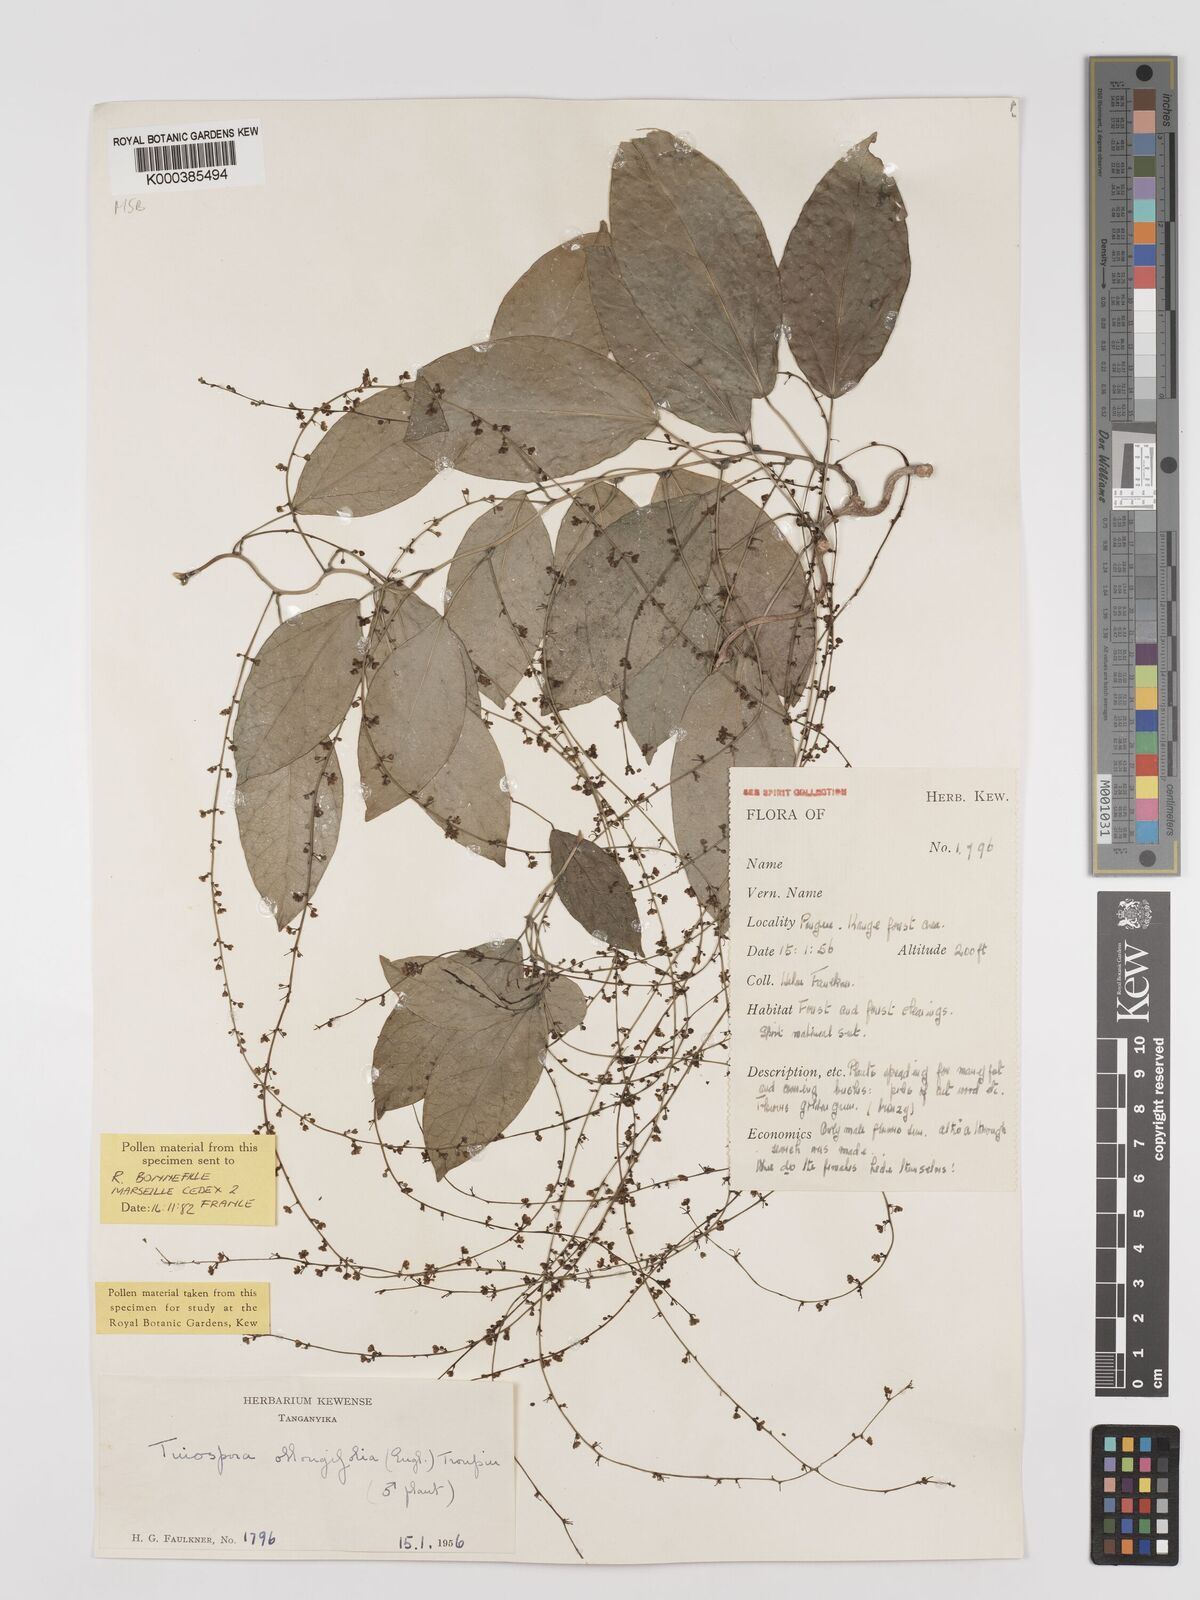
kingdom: Plantae
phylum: Tracheophyta
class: Magnoliopsida
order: Ranunculales
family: Menispermaceae
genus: Tinospora
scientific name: Tinospora oblongifolia
